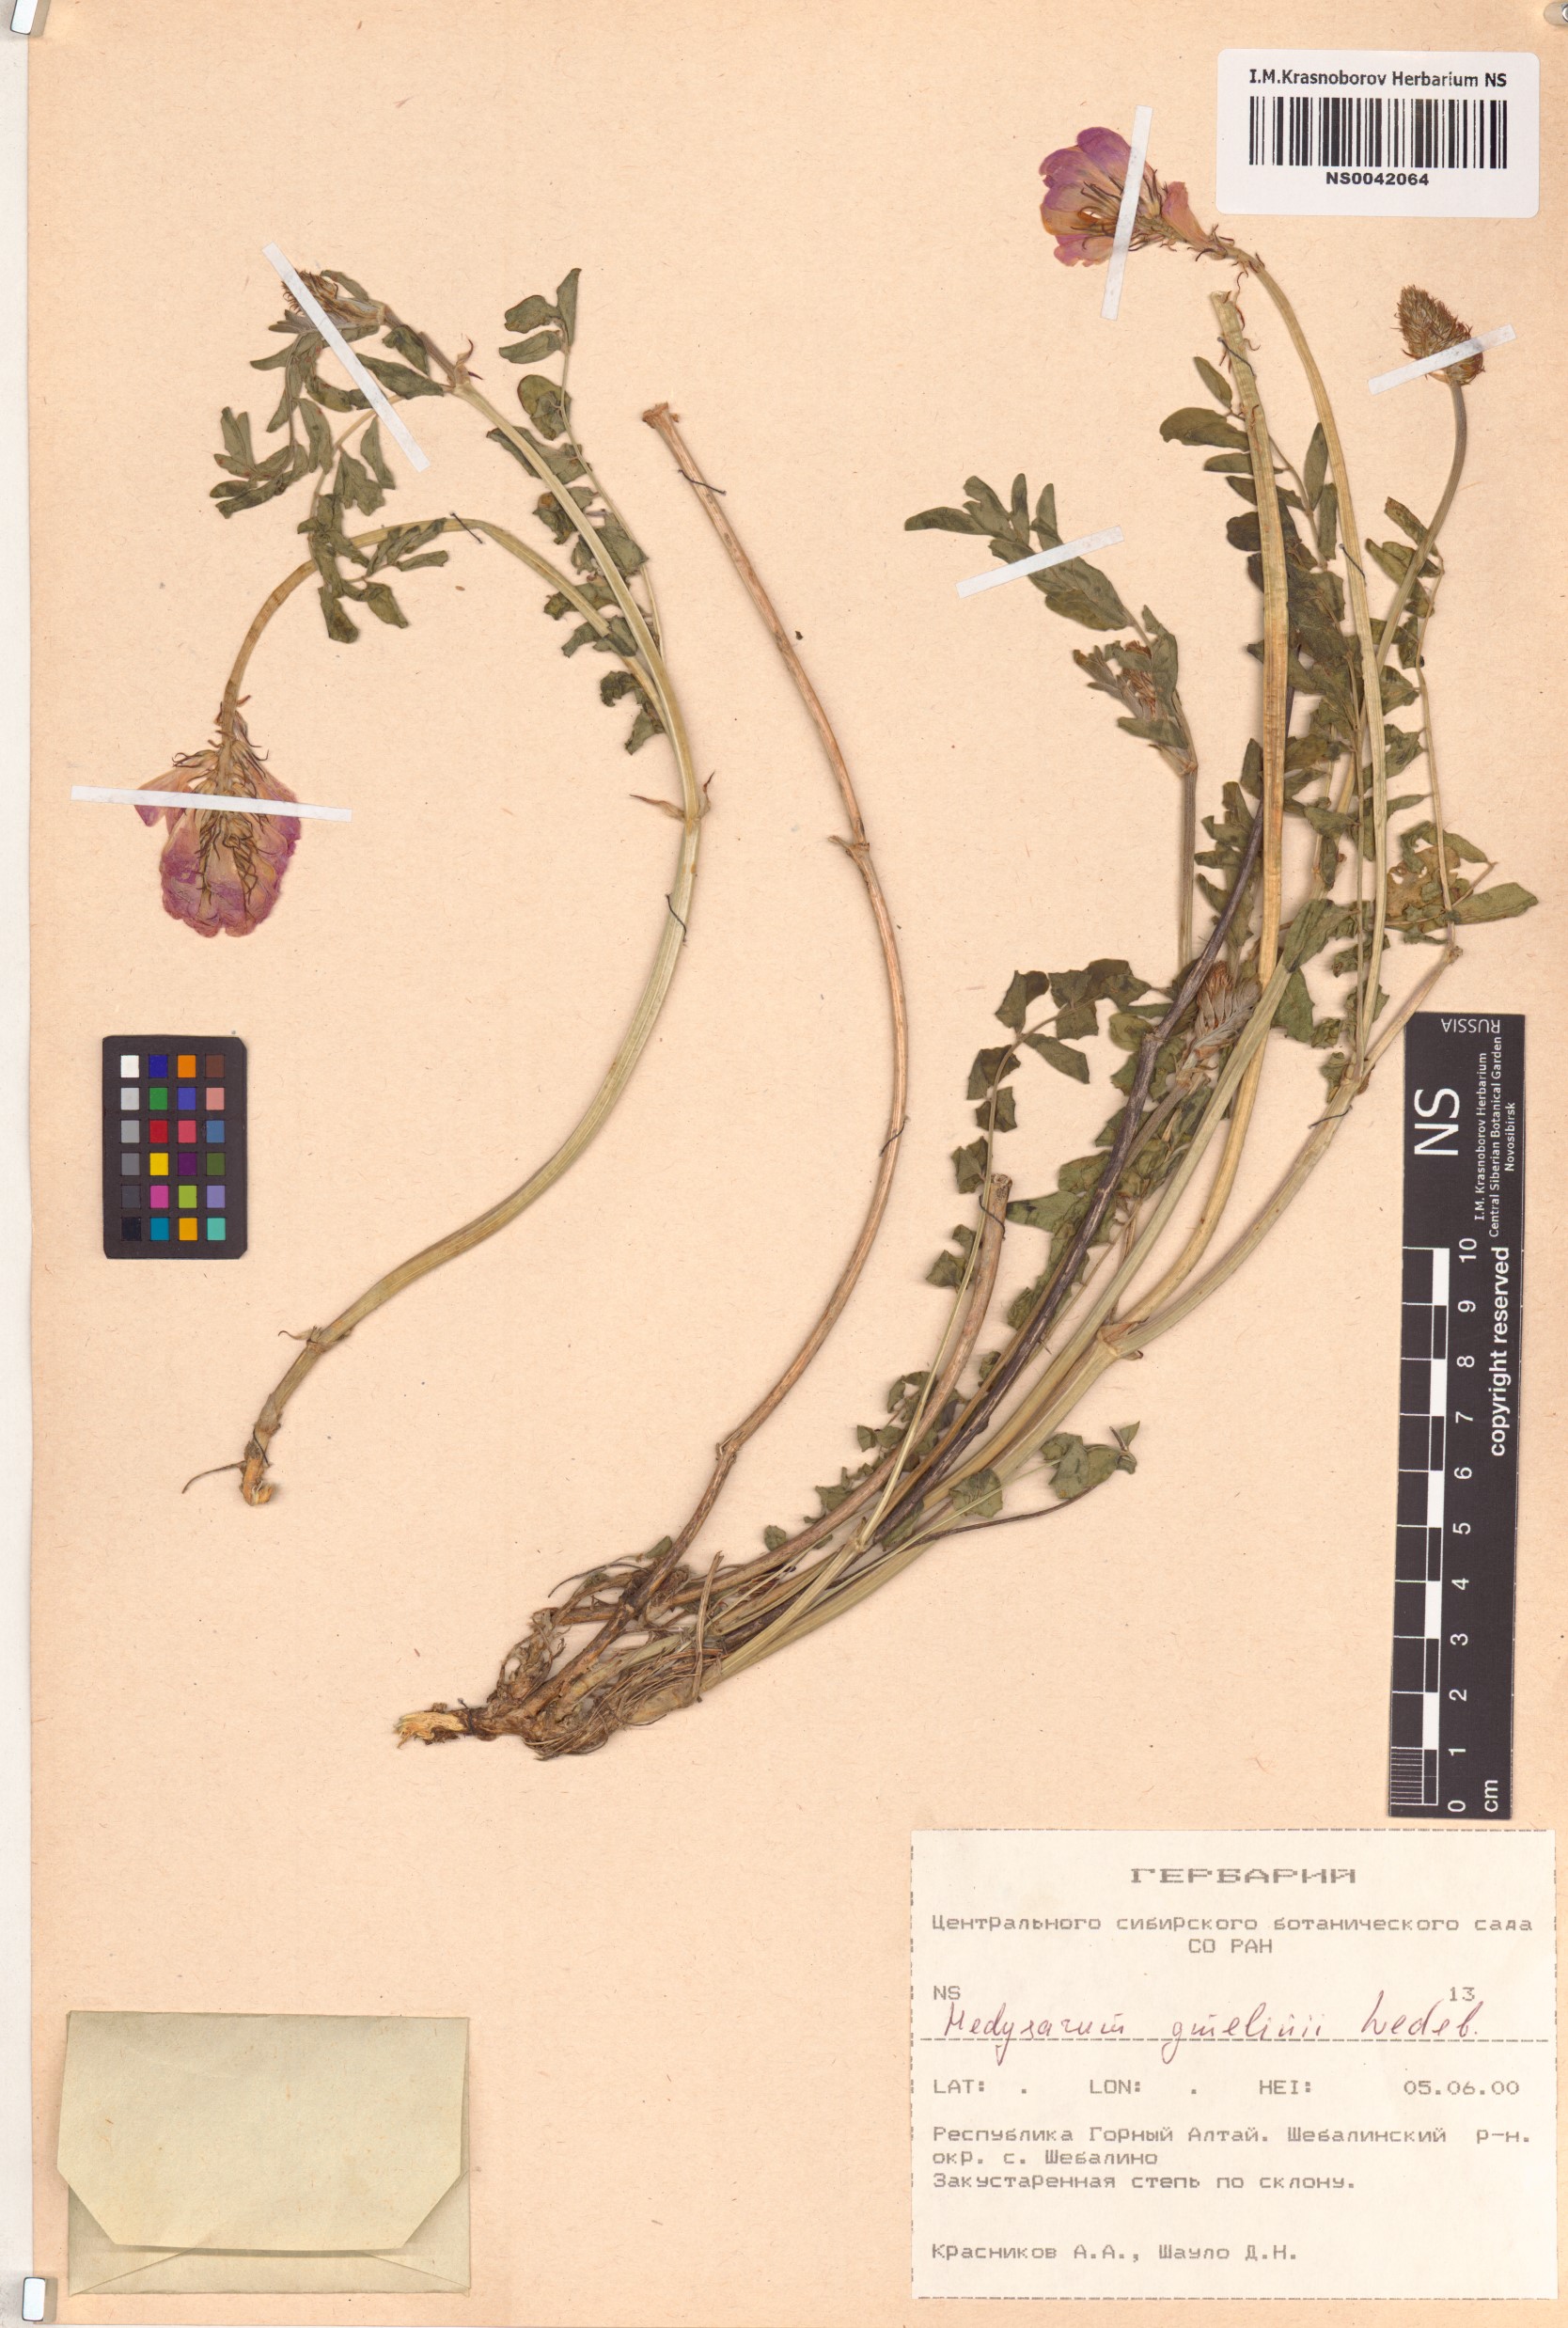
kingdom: Plantae
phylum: Tracheophyta
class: Magnoliopsida
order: Fabales
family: Fabaceae
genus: Hedysarum
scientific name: Hedysarum gmelinii
